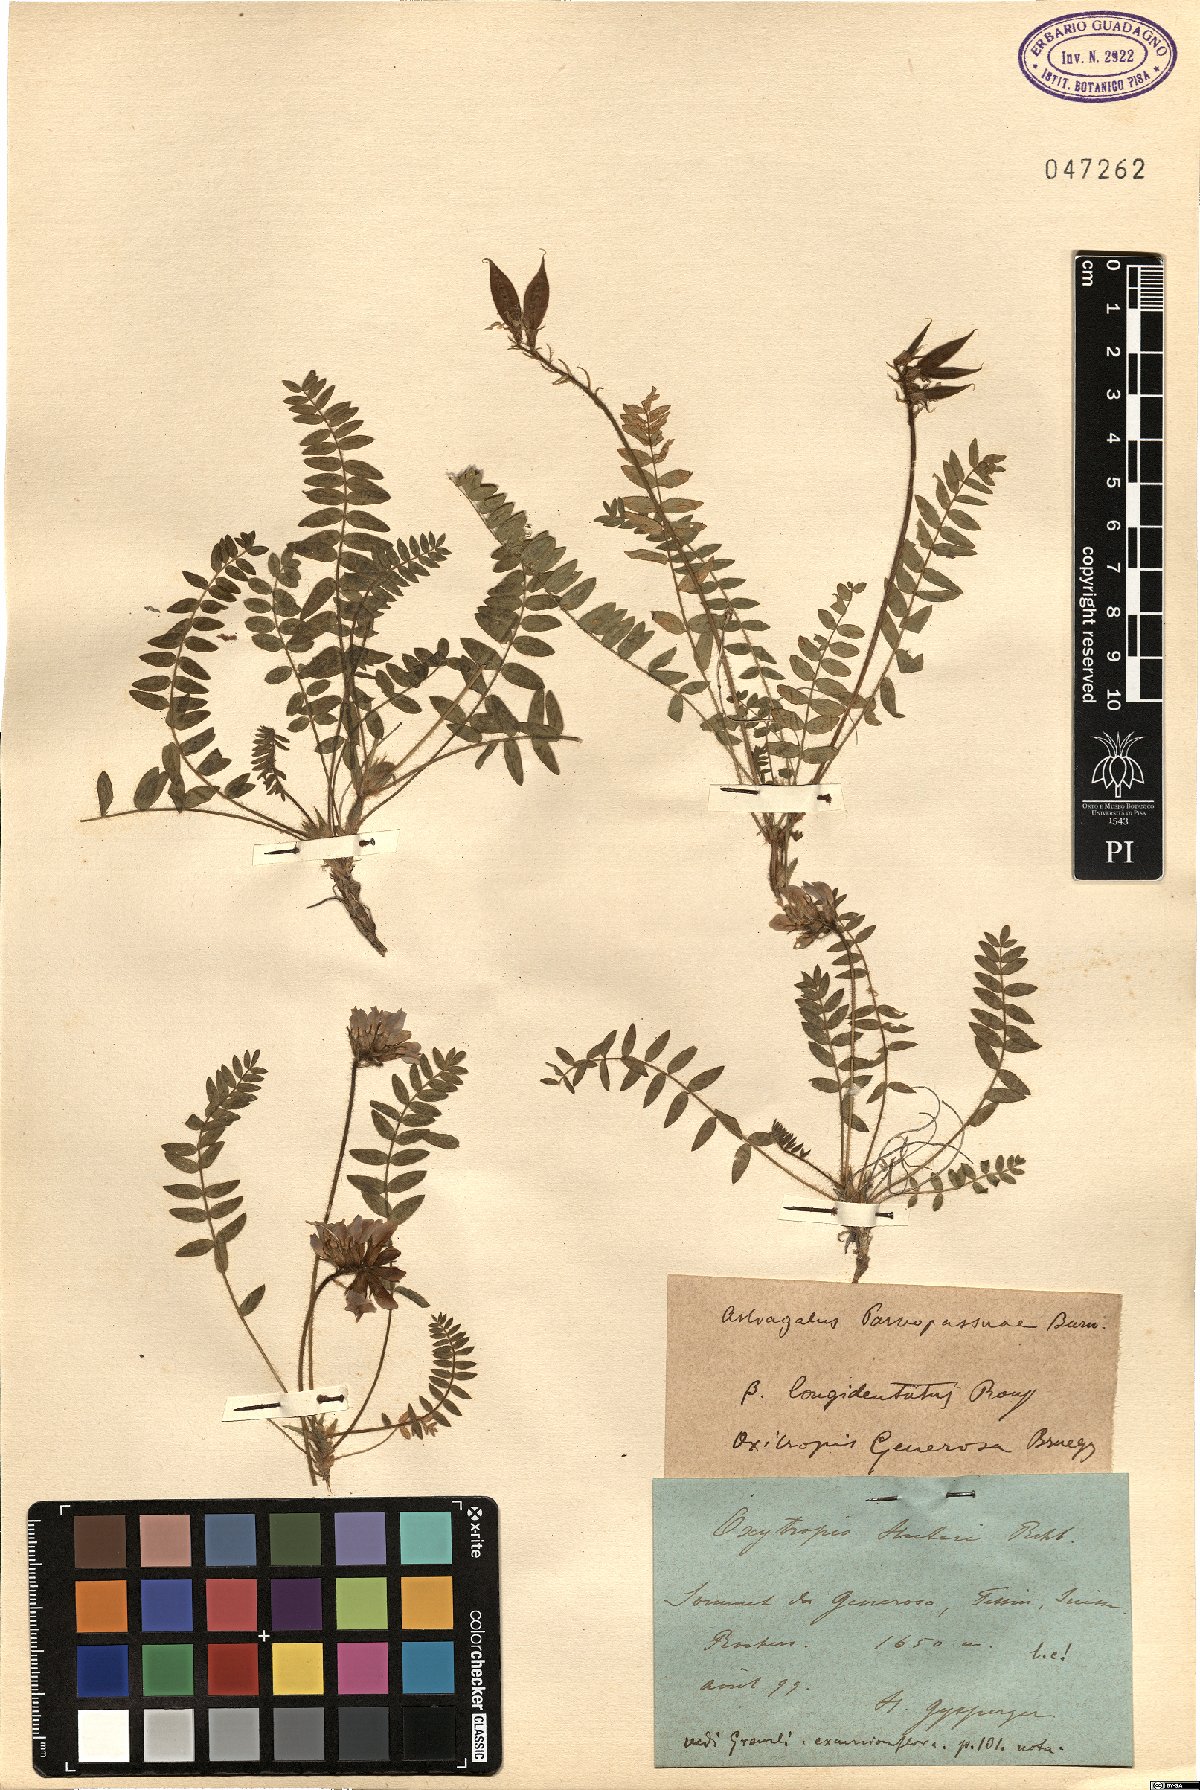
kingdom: Plantae
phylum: Tracheophyta
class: Magnoliopsida
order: Fabales
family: Fabaceae
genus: Oxytropis
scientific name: Oxytropis neglecta
